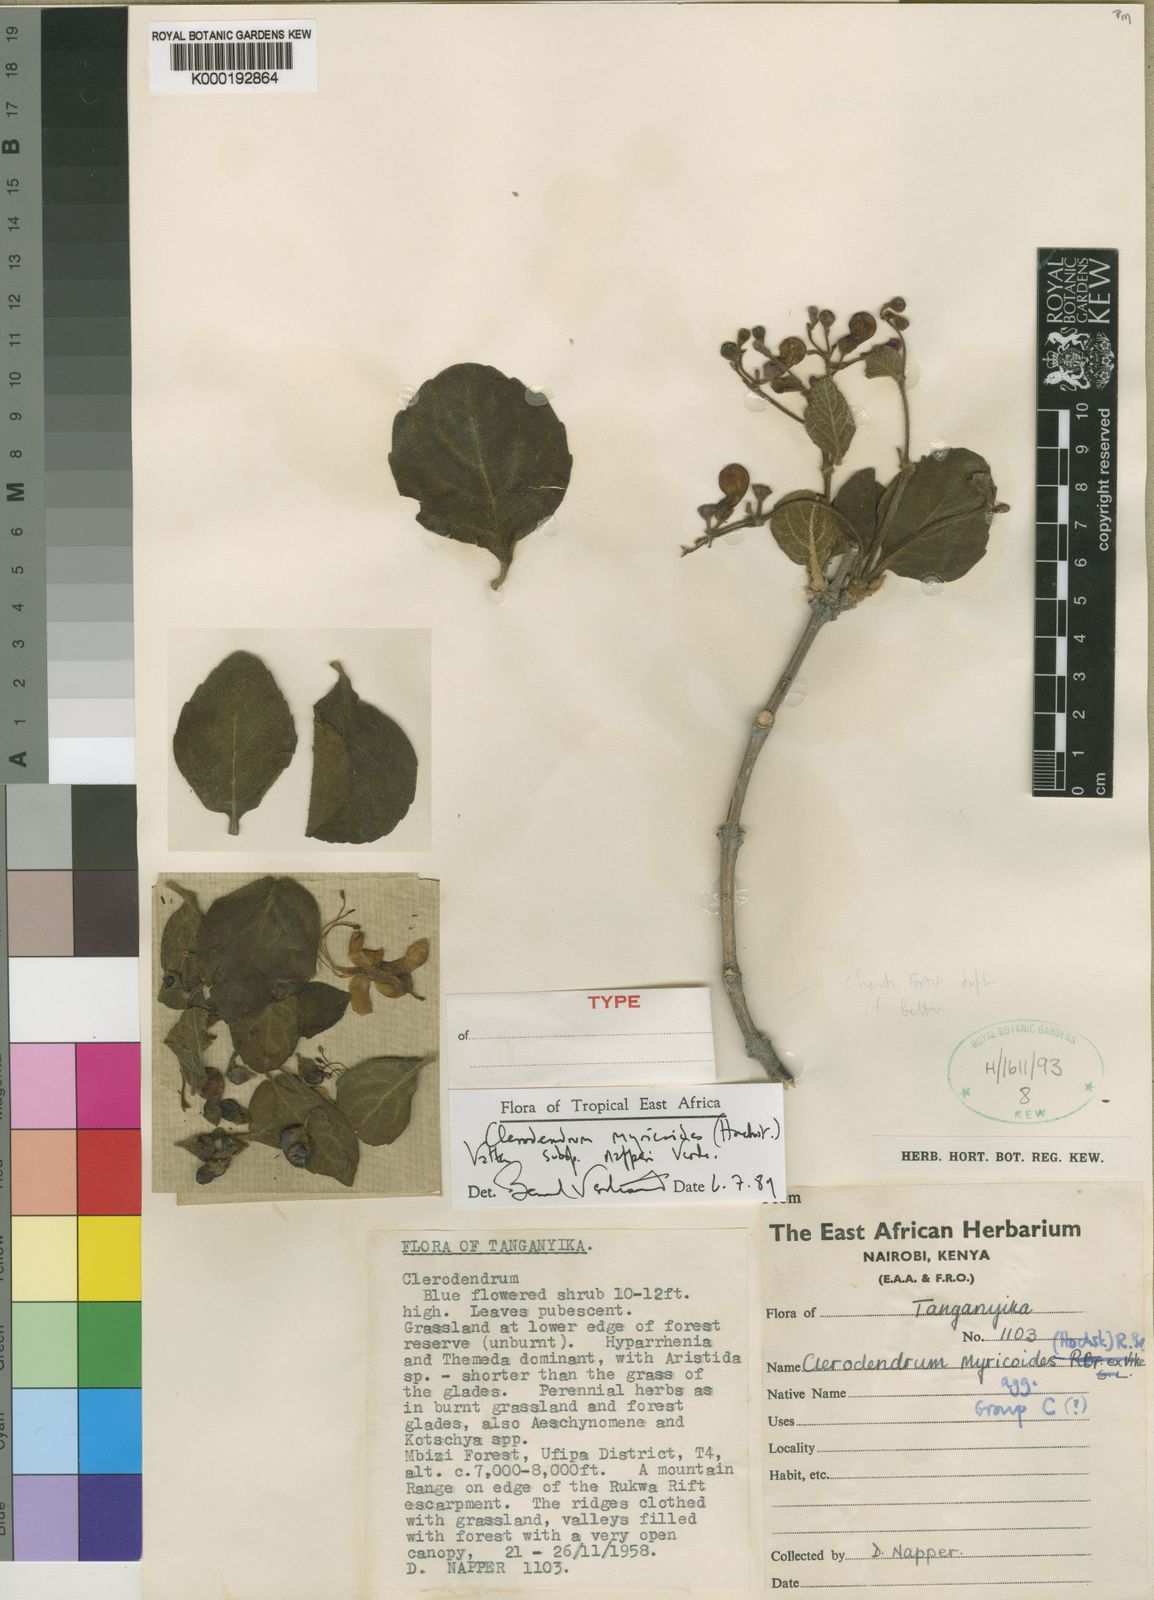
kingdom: Plantae
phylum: Tracheophyta
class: Magnoliopsida
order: Lamiales
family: Lamiaceae
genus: Rotheca
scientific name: Rotheca myricoides
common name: Cats-whiskers
